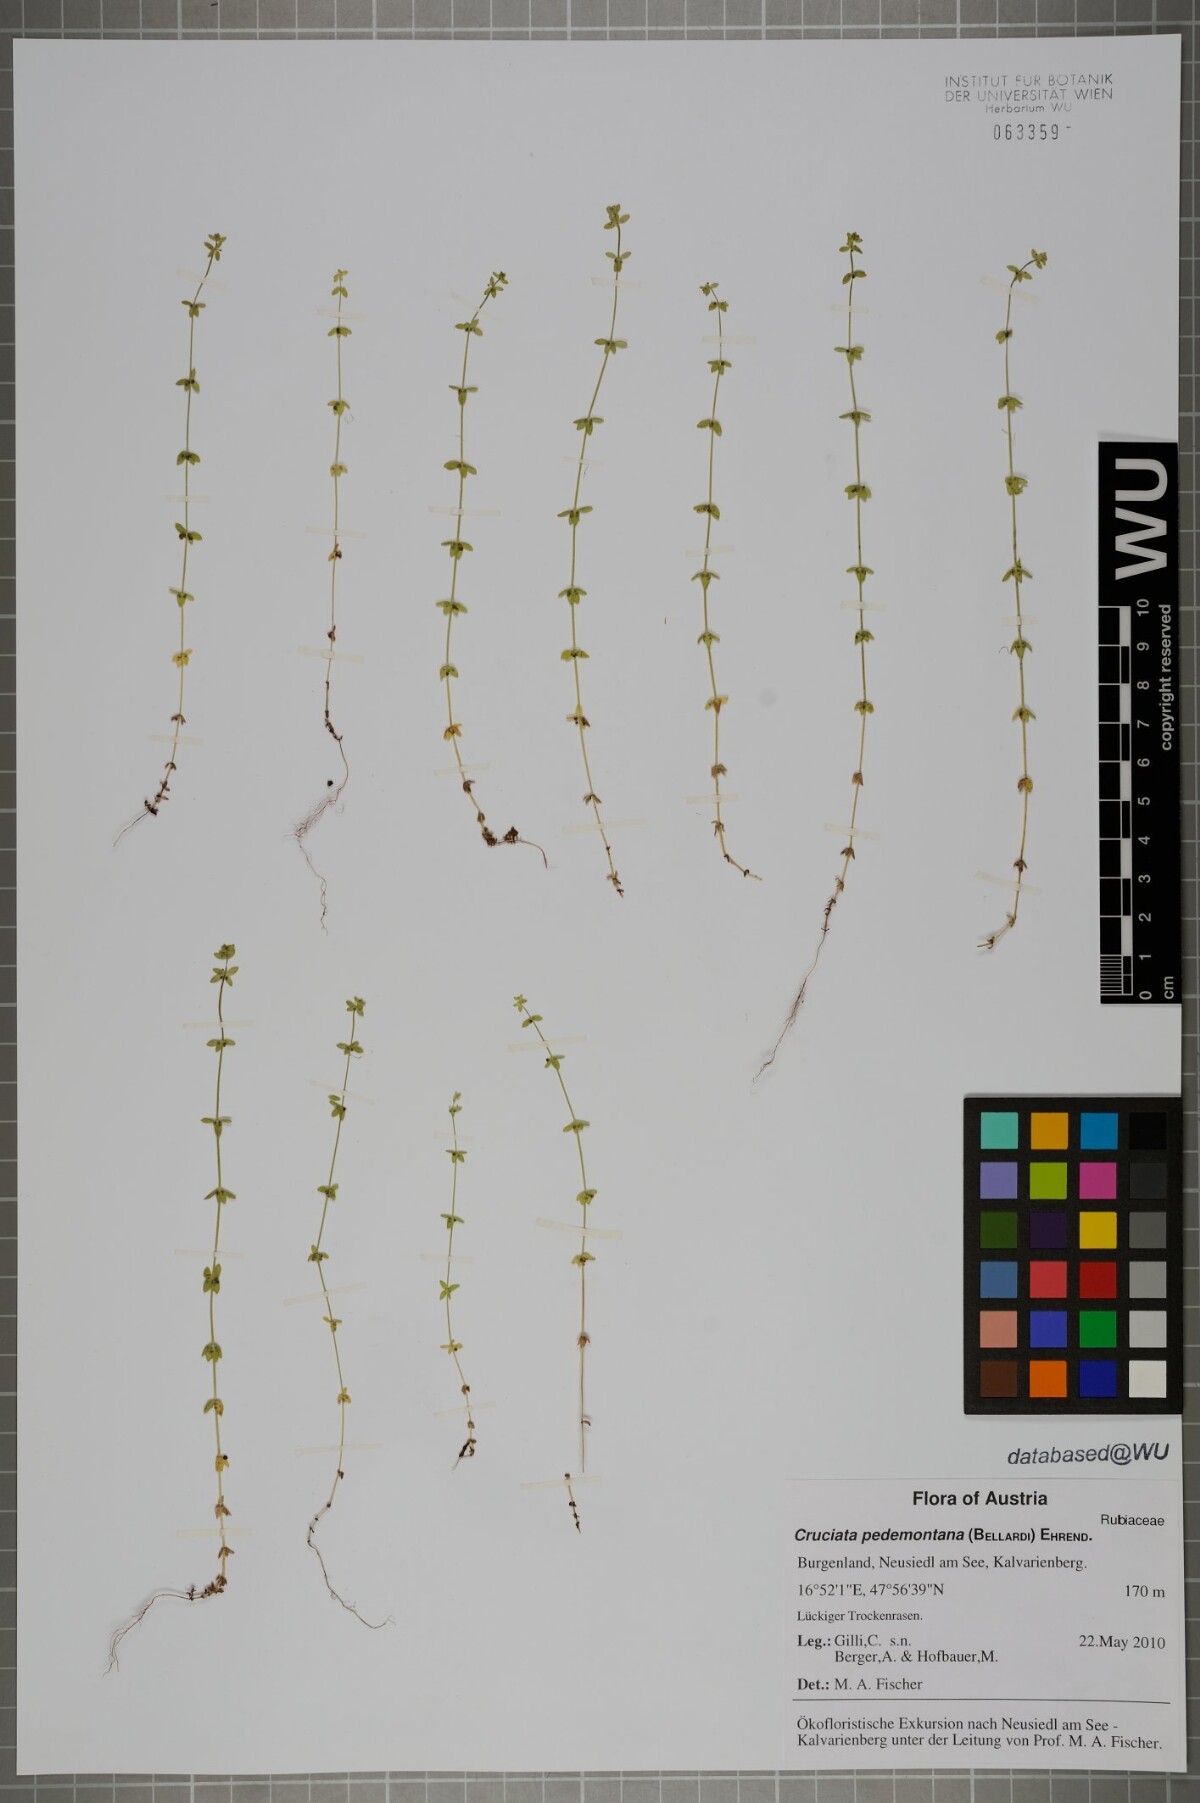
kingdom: Plantae
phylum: Tracheophyta
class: Magnoliopsida
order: Gentianales
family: Rubiaceae
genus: Cruciata
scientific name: Cruciata pedemontana
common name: Piedmont bedstraw
